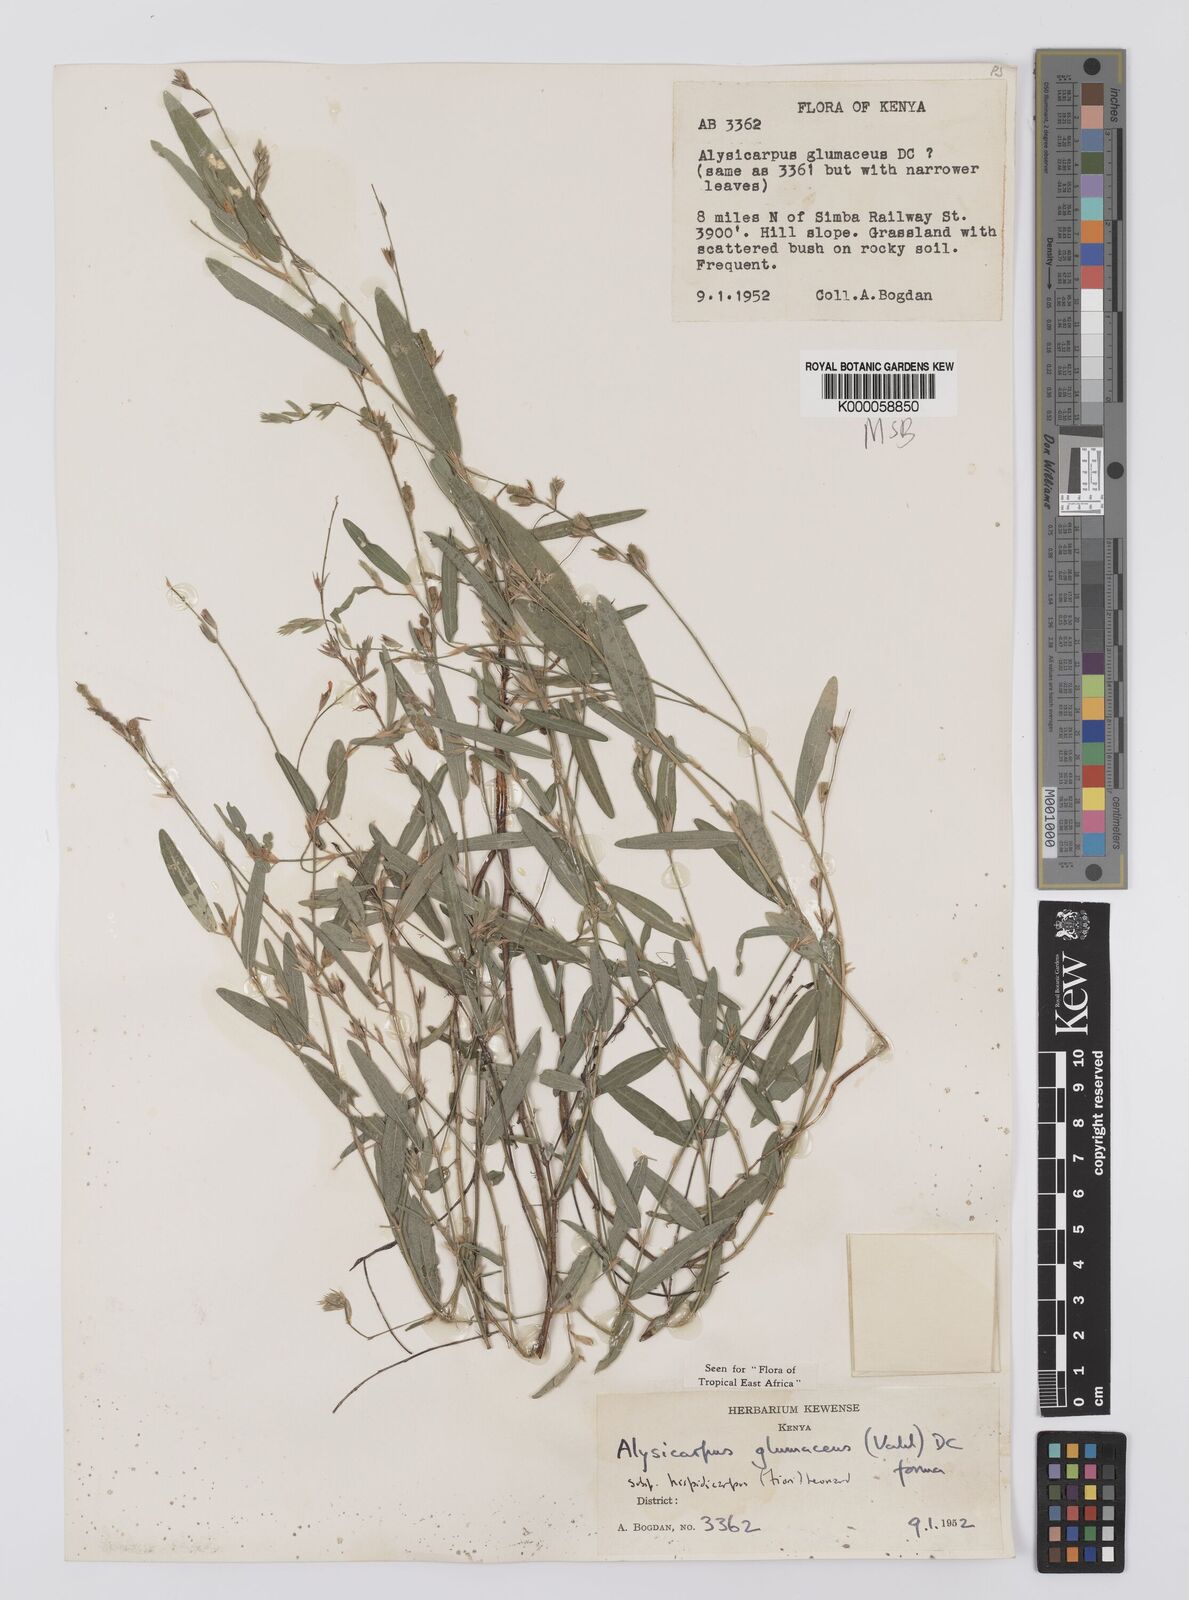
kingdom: Plantae
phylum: Tracheophyta
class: Magnoliopsida
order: Fabales
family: Fabaceae
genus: Alysicarpus
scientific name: Alysicarpus glumaceus
